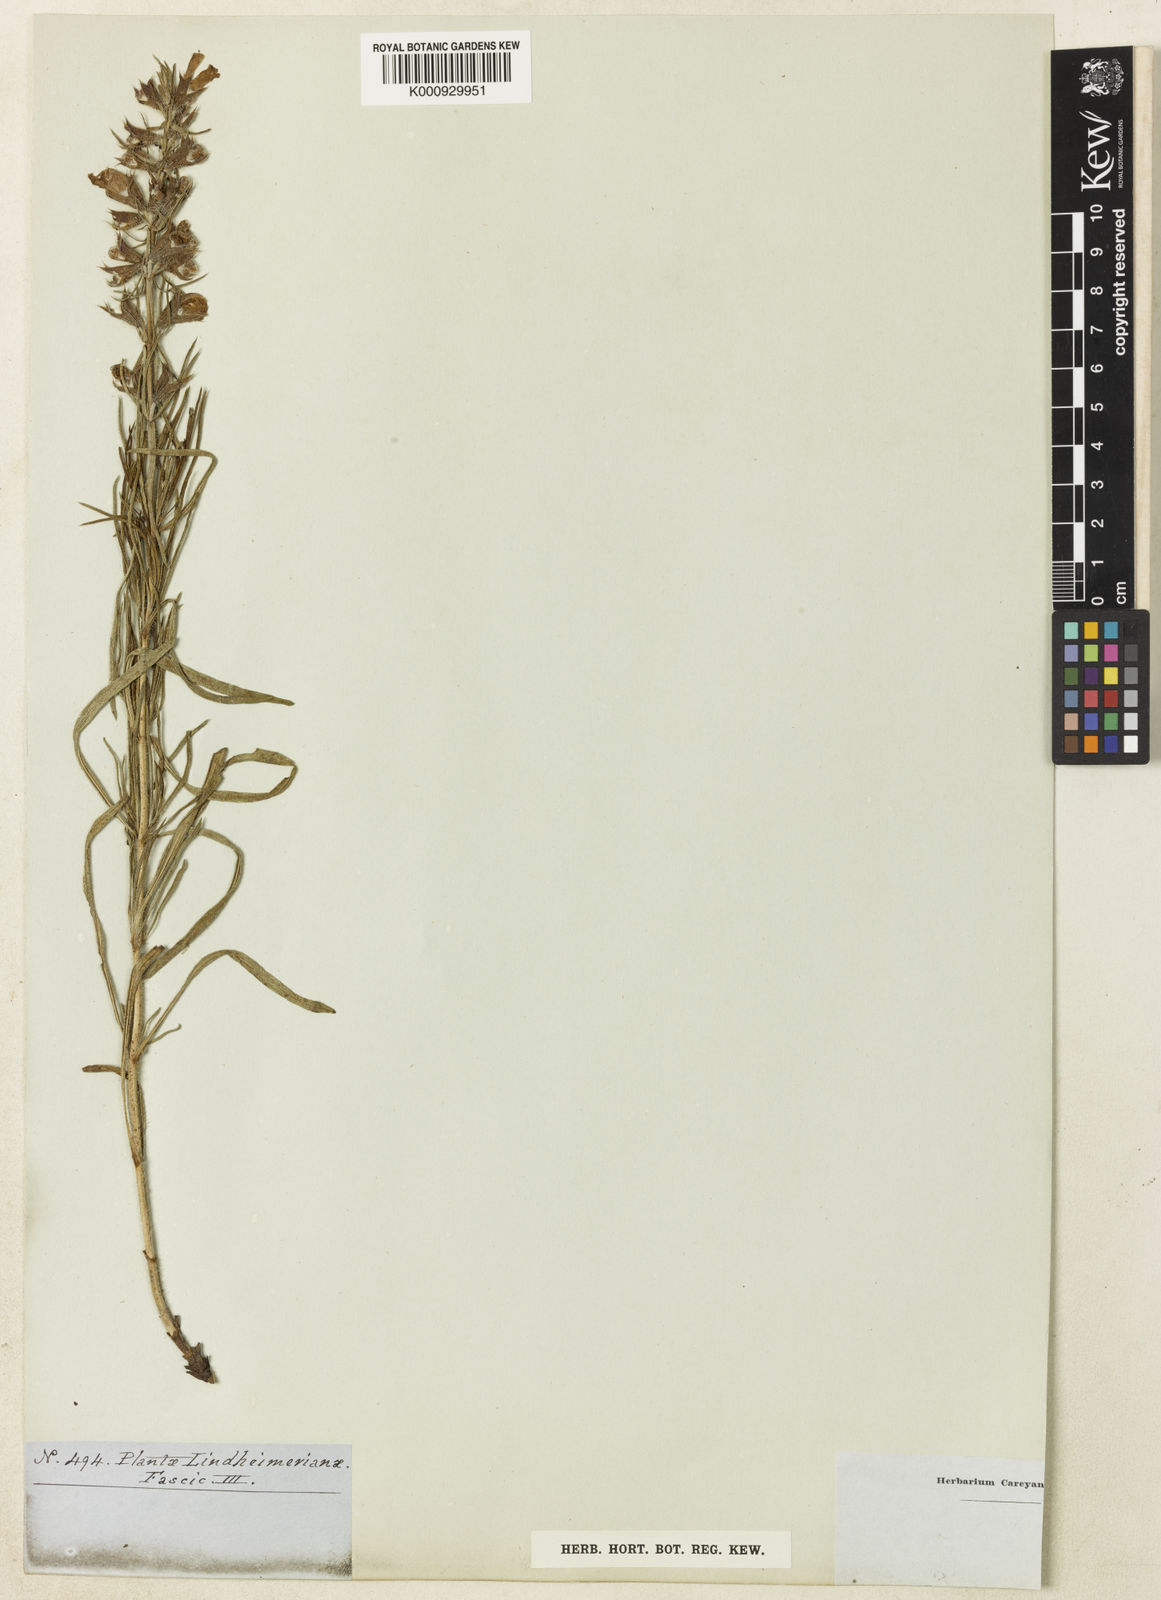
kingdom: Plantae
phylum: Tracheophyta
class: Magnoliopsida
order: Lamiales
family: Lamiaceae
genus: Salvia
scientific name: Salvia engelmannii
